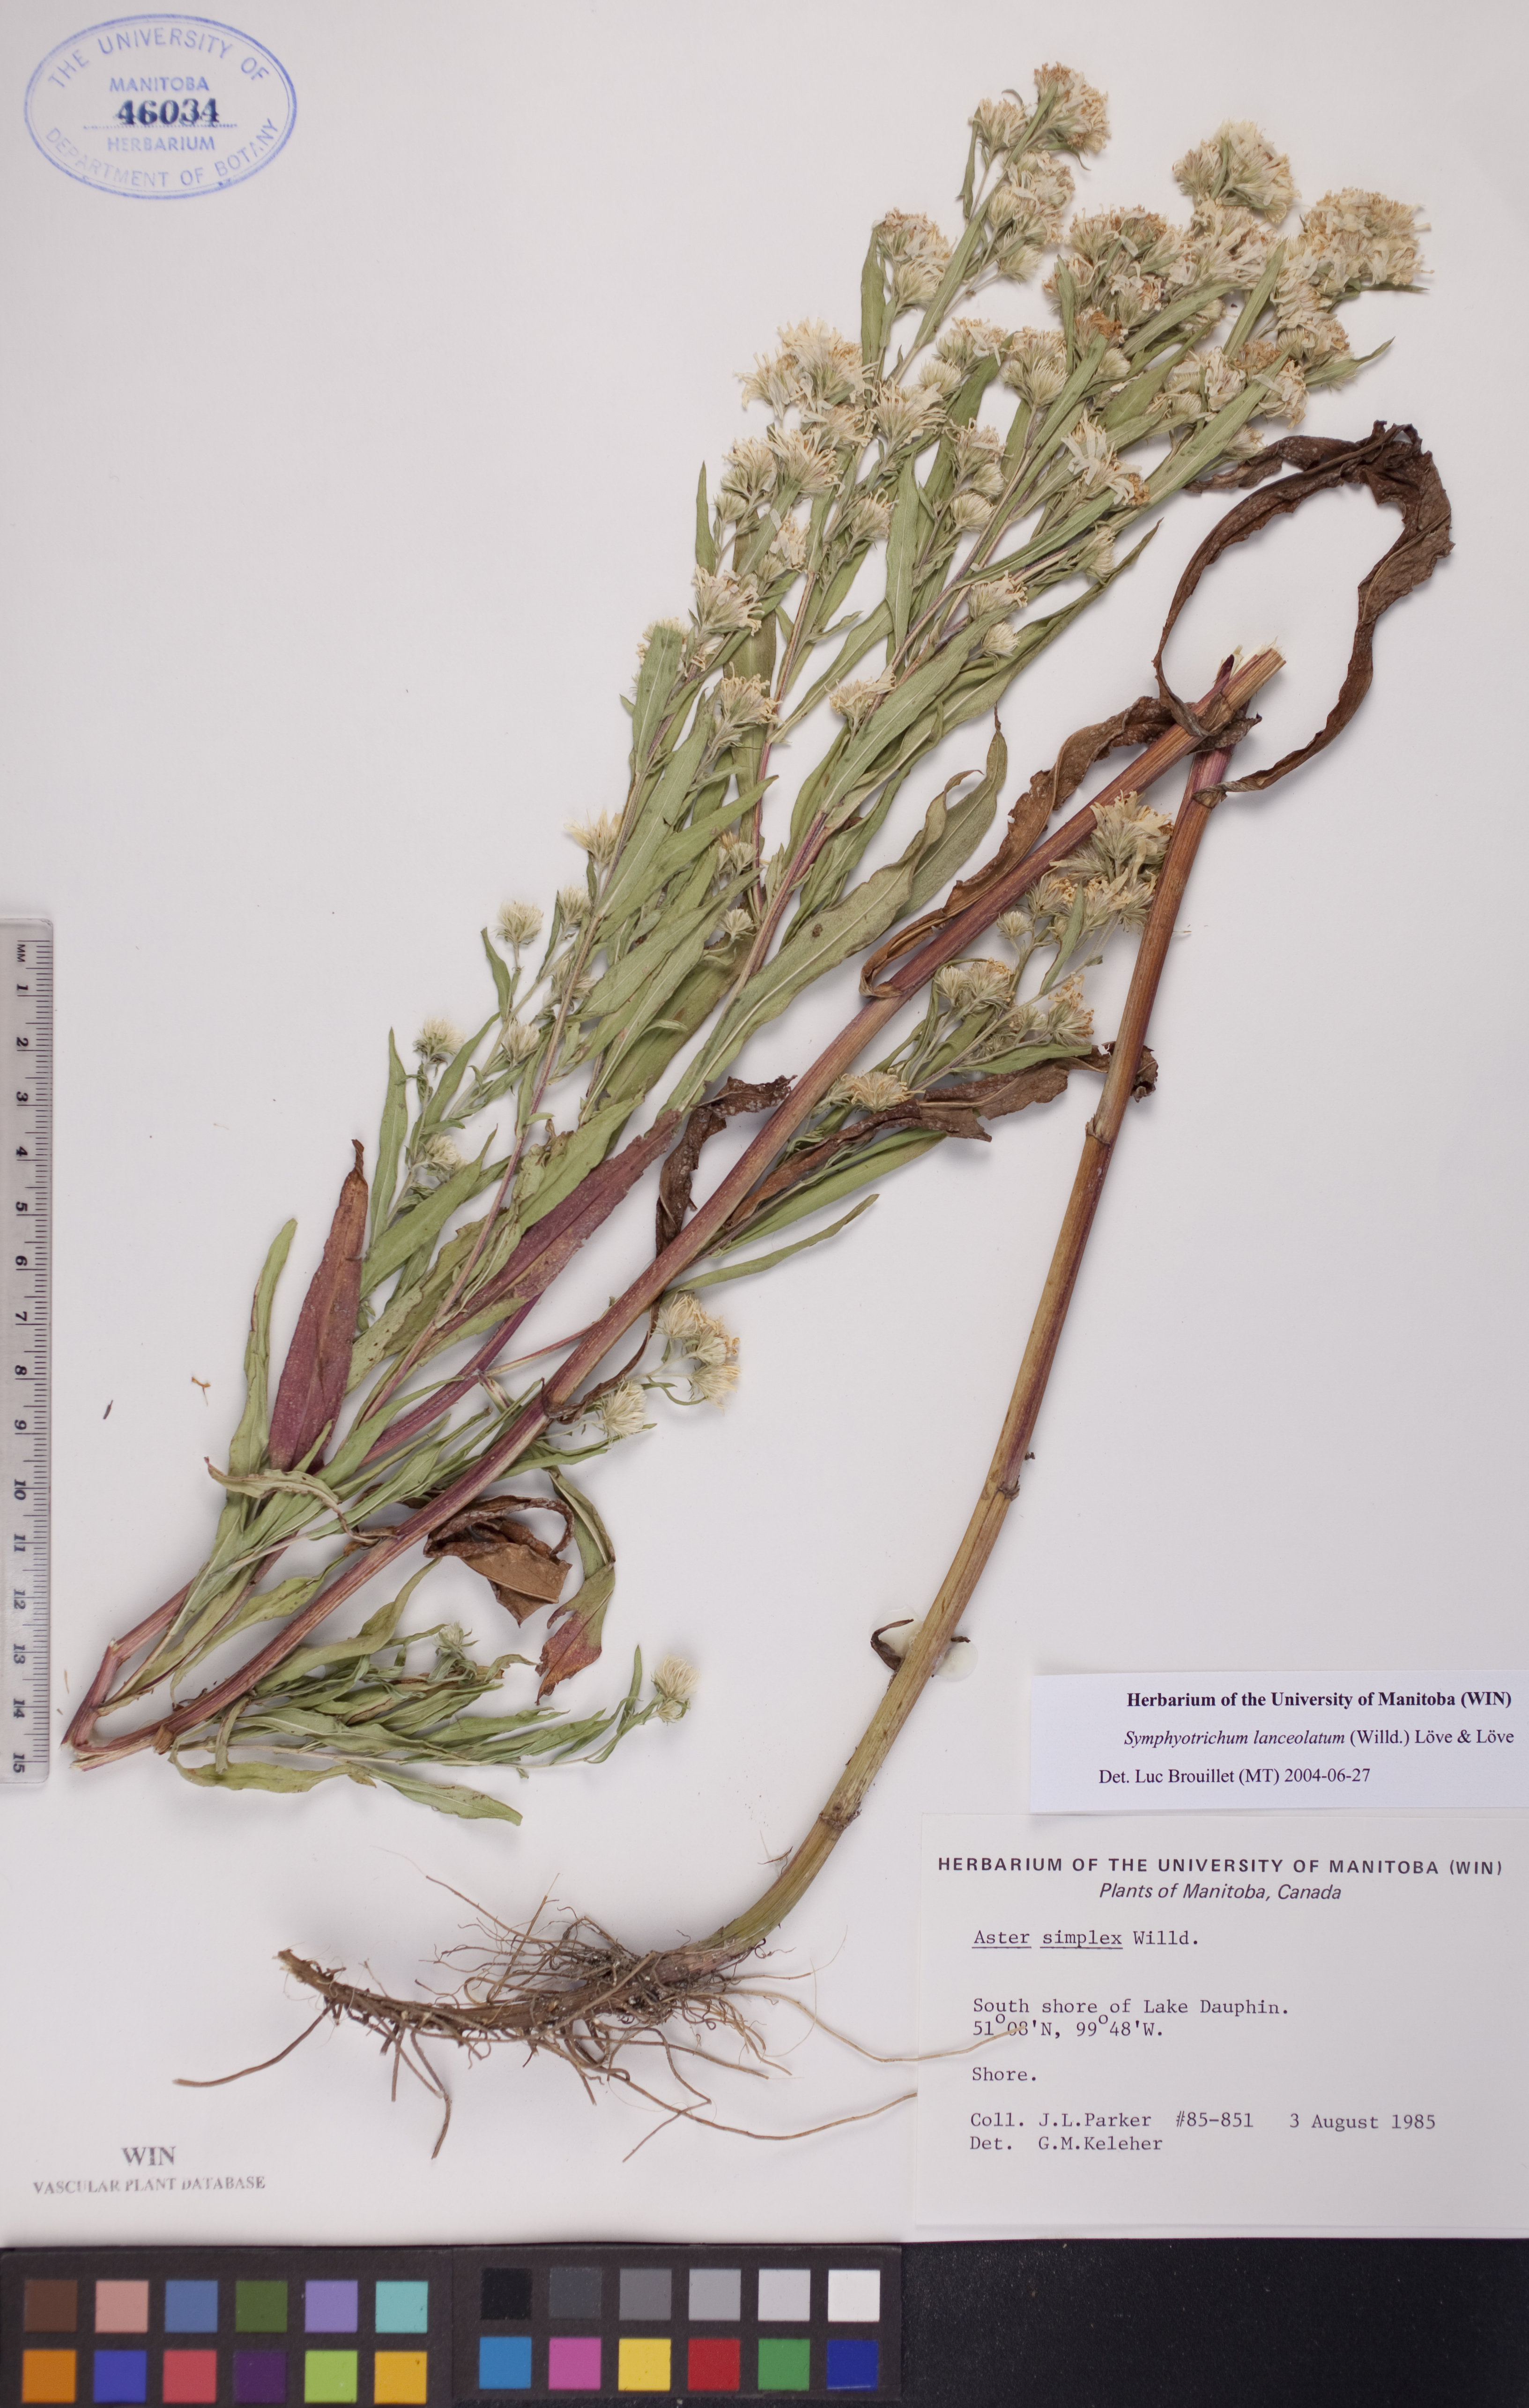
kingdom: Plantae
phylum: Tracheophyta
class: Magnoliopsida
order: Asterales
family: Asteraceae
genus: Symphyotrichum
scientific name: Symphyotrichum lanceolatum
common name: Panicled aster
